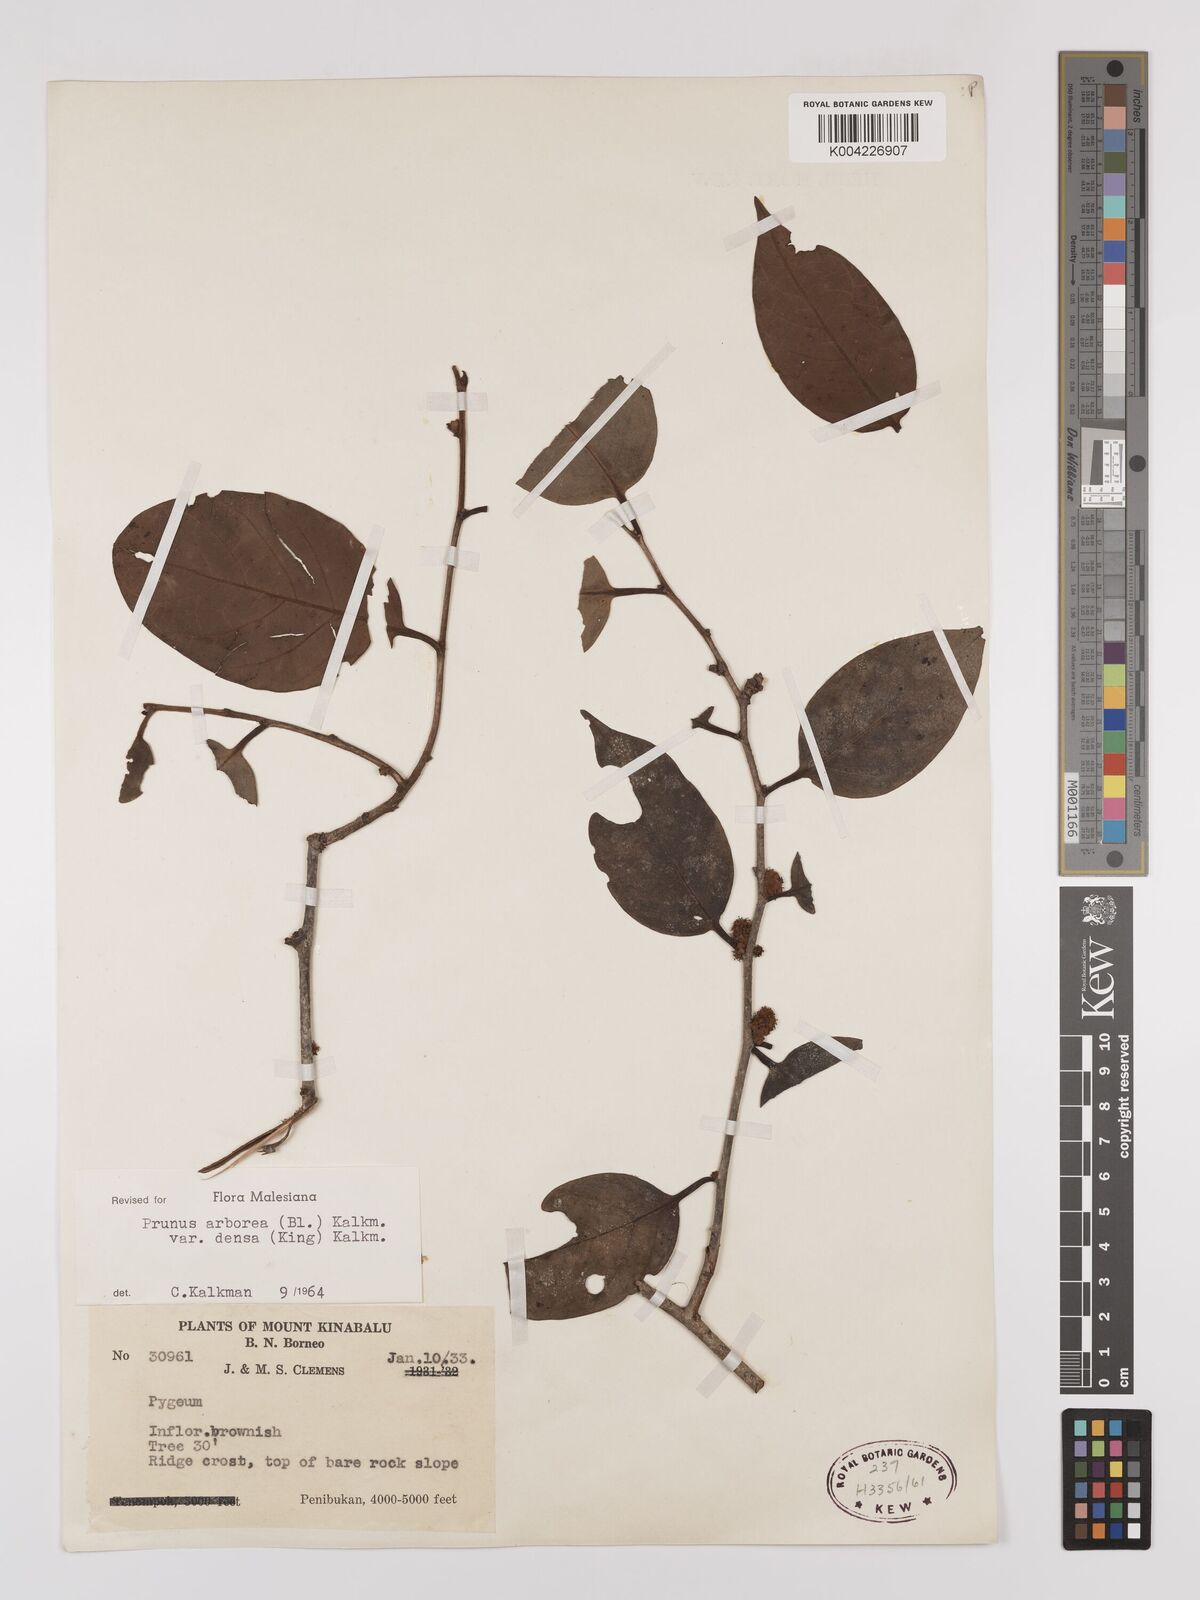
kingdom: Plantae
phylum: Tracheophyta
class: Magnoliopsida
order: Rosales
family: Rosaceae
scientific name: Rosaceae
